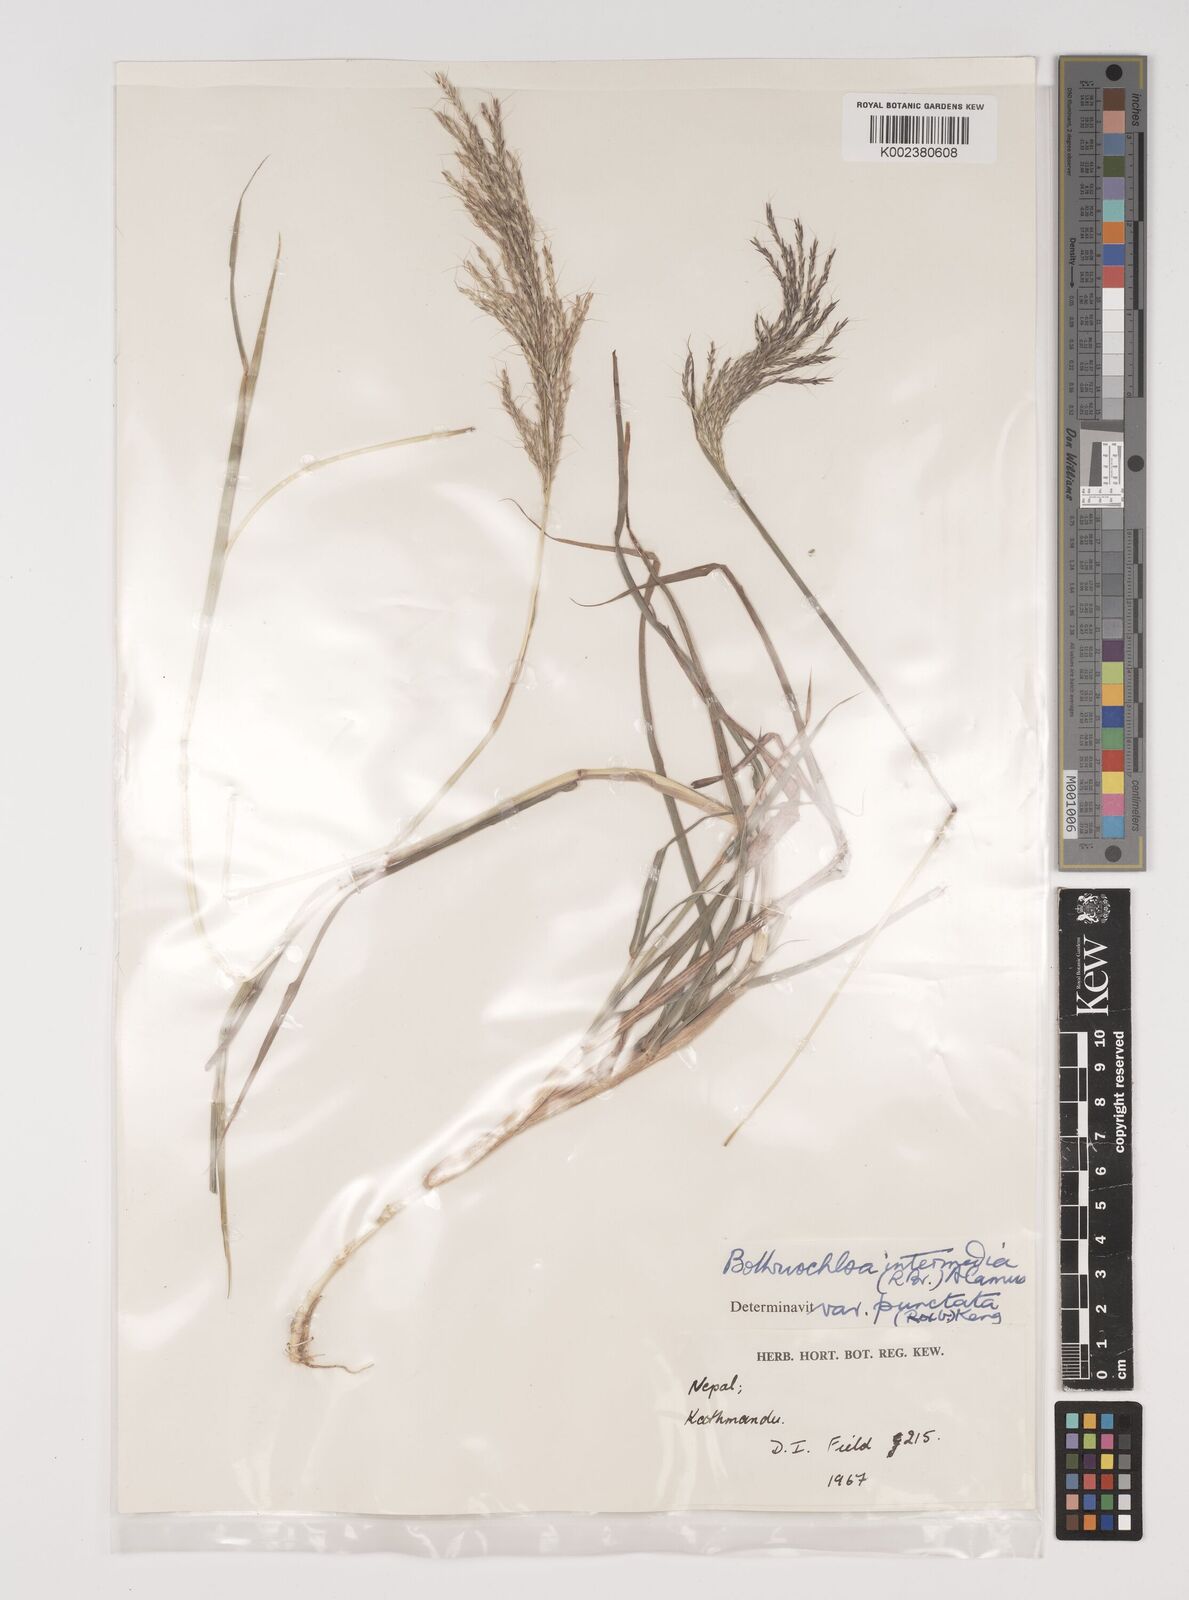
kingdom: Plantae
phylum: Tracheophyta
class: Liliopsida
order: Poales
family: Poaceae
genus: Bothriochloa
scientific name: Bothriochloa bladhii
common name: Caucasian bluestem
